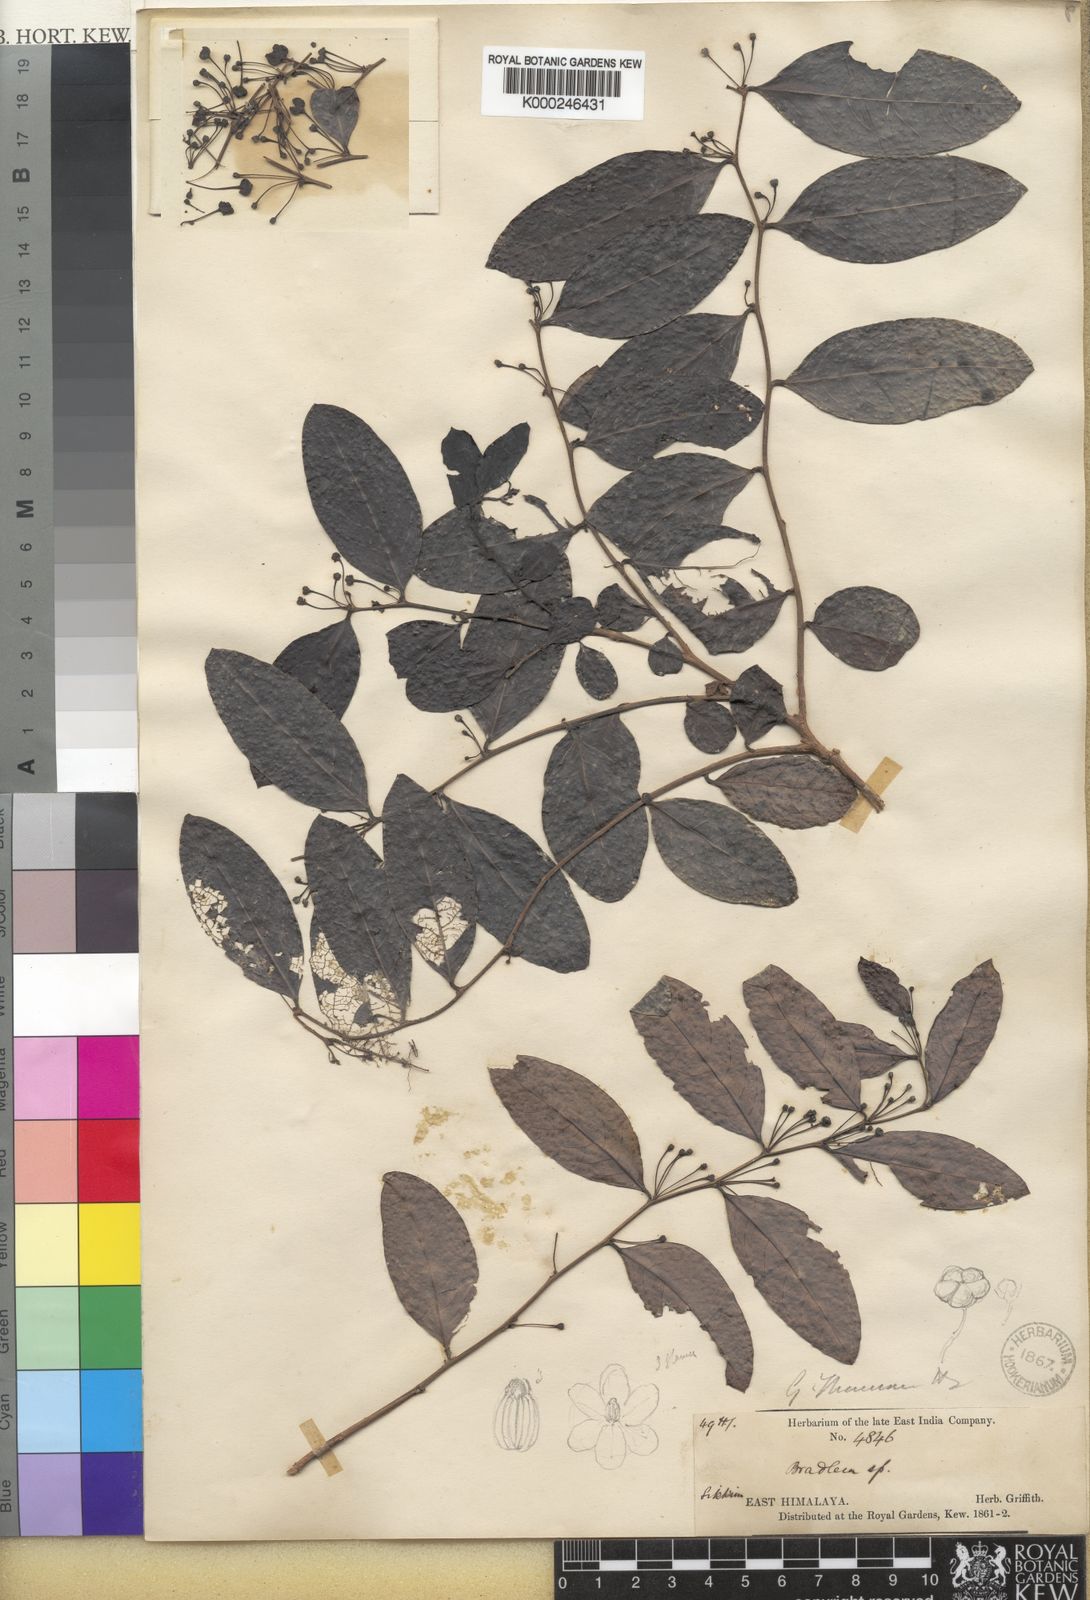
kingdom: Plantae
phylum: Tracheophyta
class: Magnoliopsida
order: Malpighiales
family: Phyllanthaceae
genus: Glochidion
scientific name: Glochidion thomsonii
